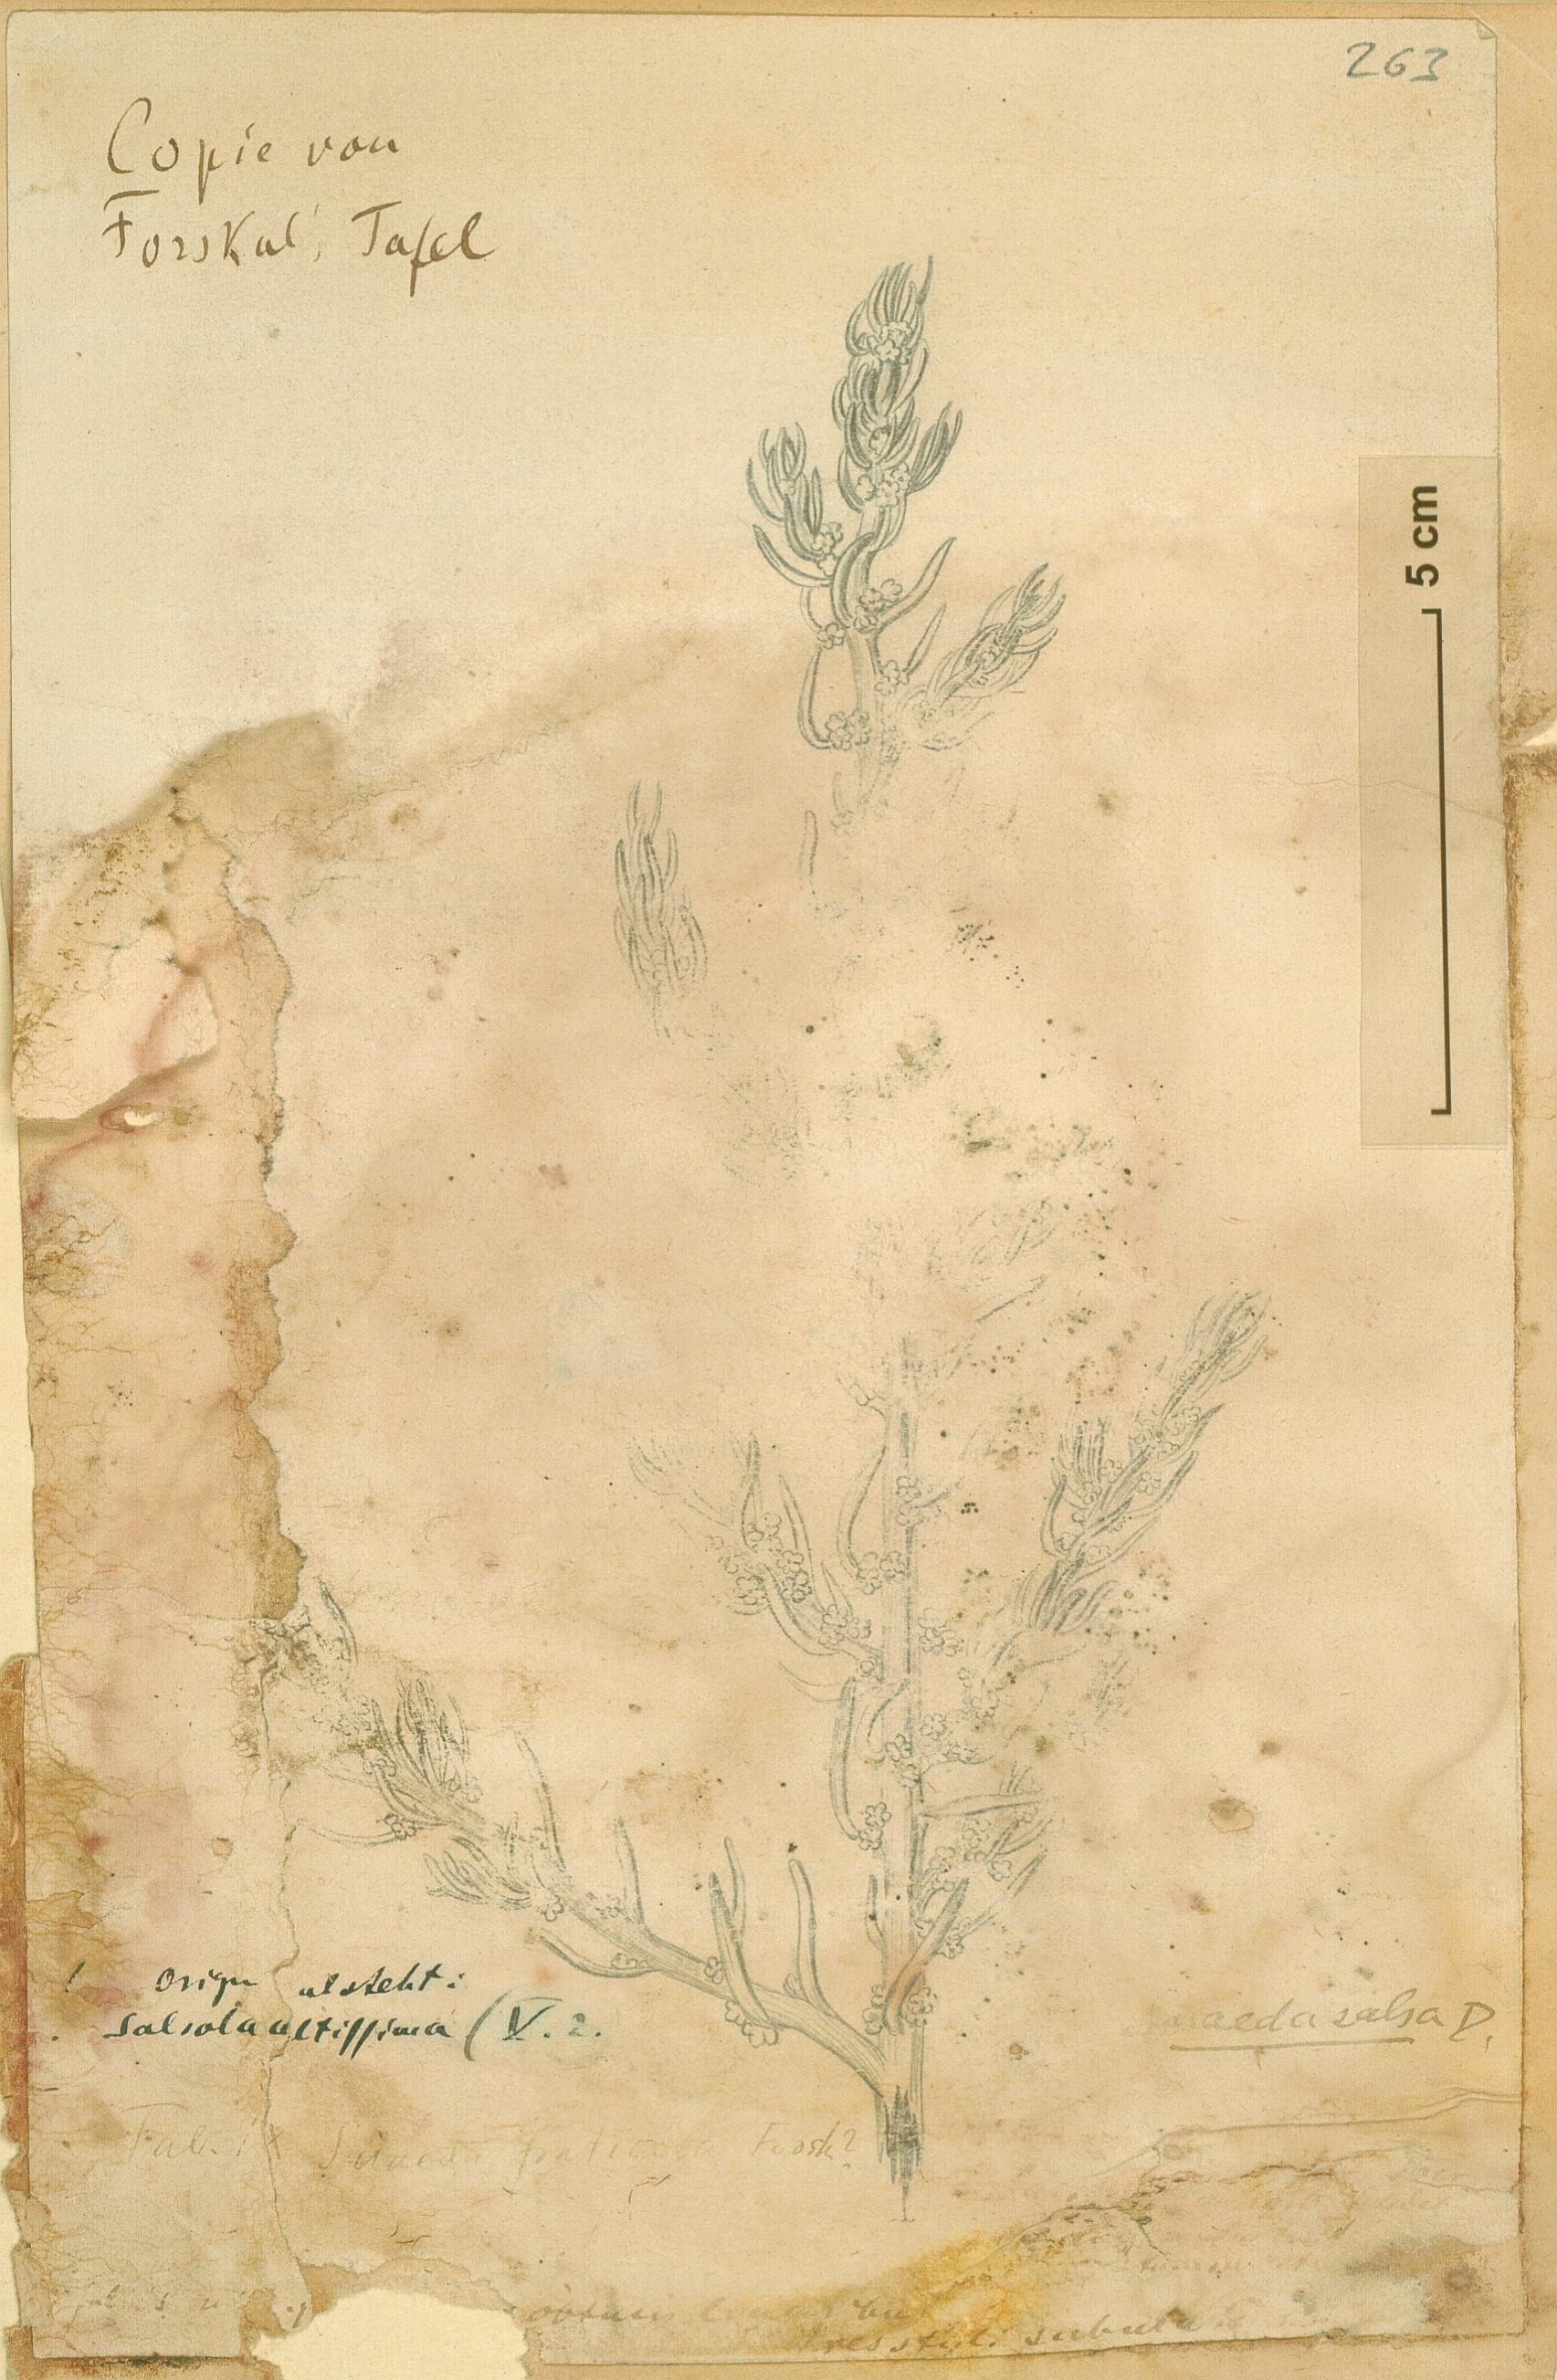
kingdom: Plantae
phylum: Tracheophyta
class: Magnoliopsida
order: Caryophyllales
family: Amaranthaceae
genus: Suaeda
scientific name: Suaeda fruticosa
